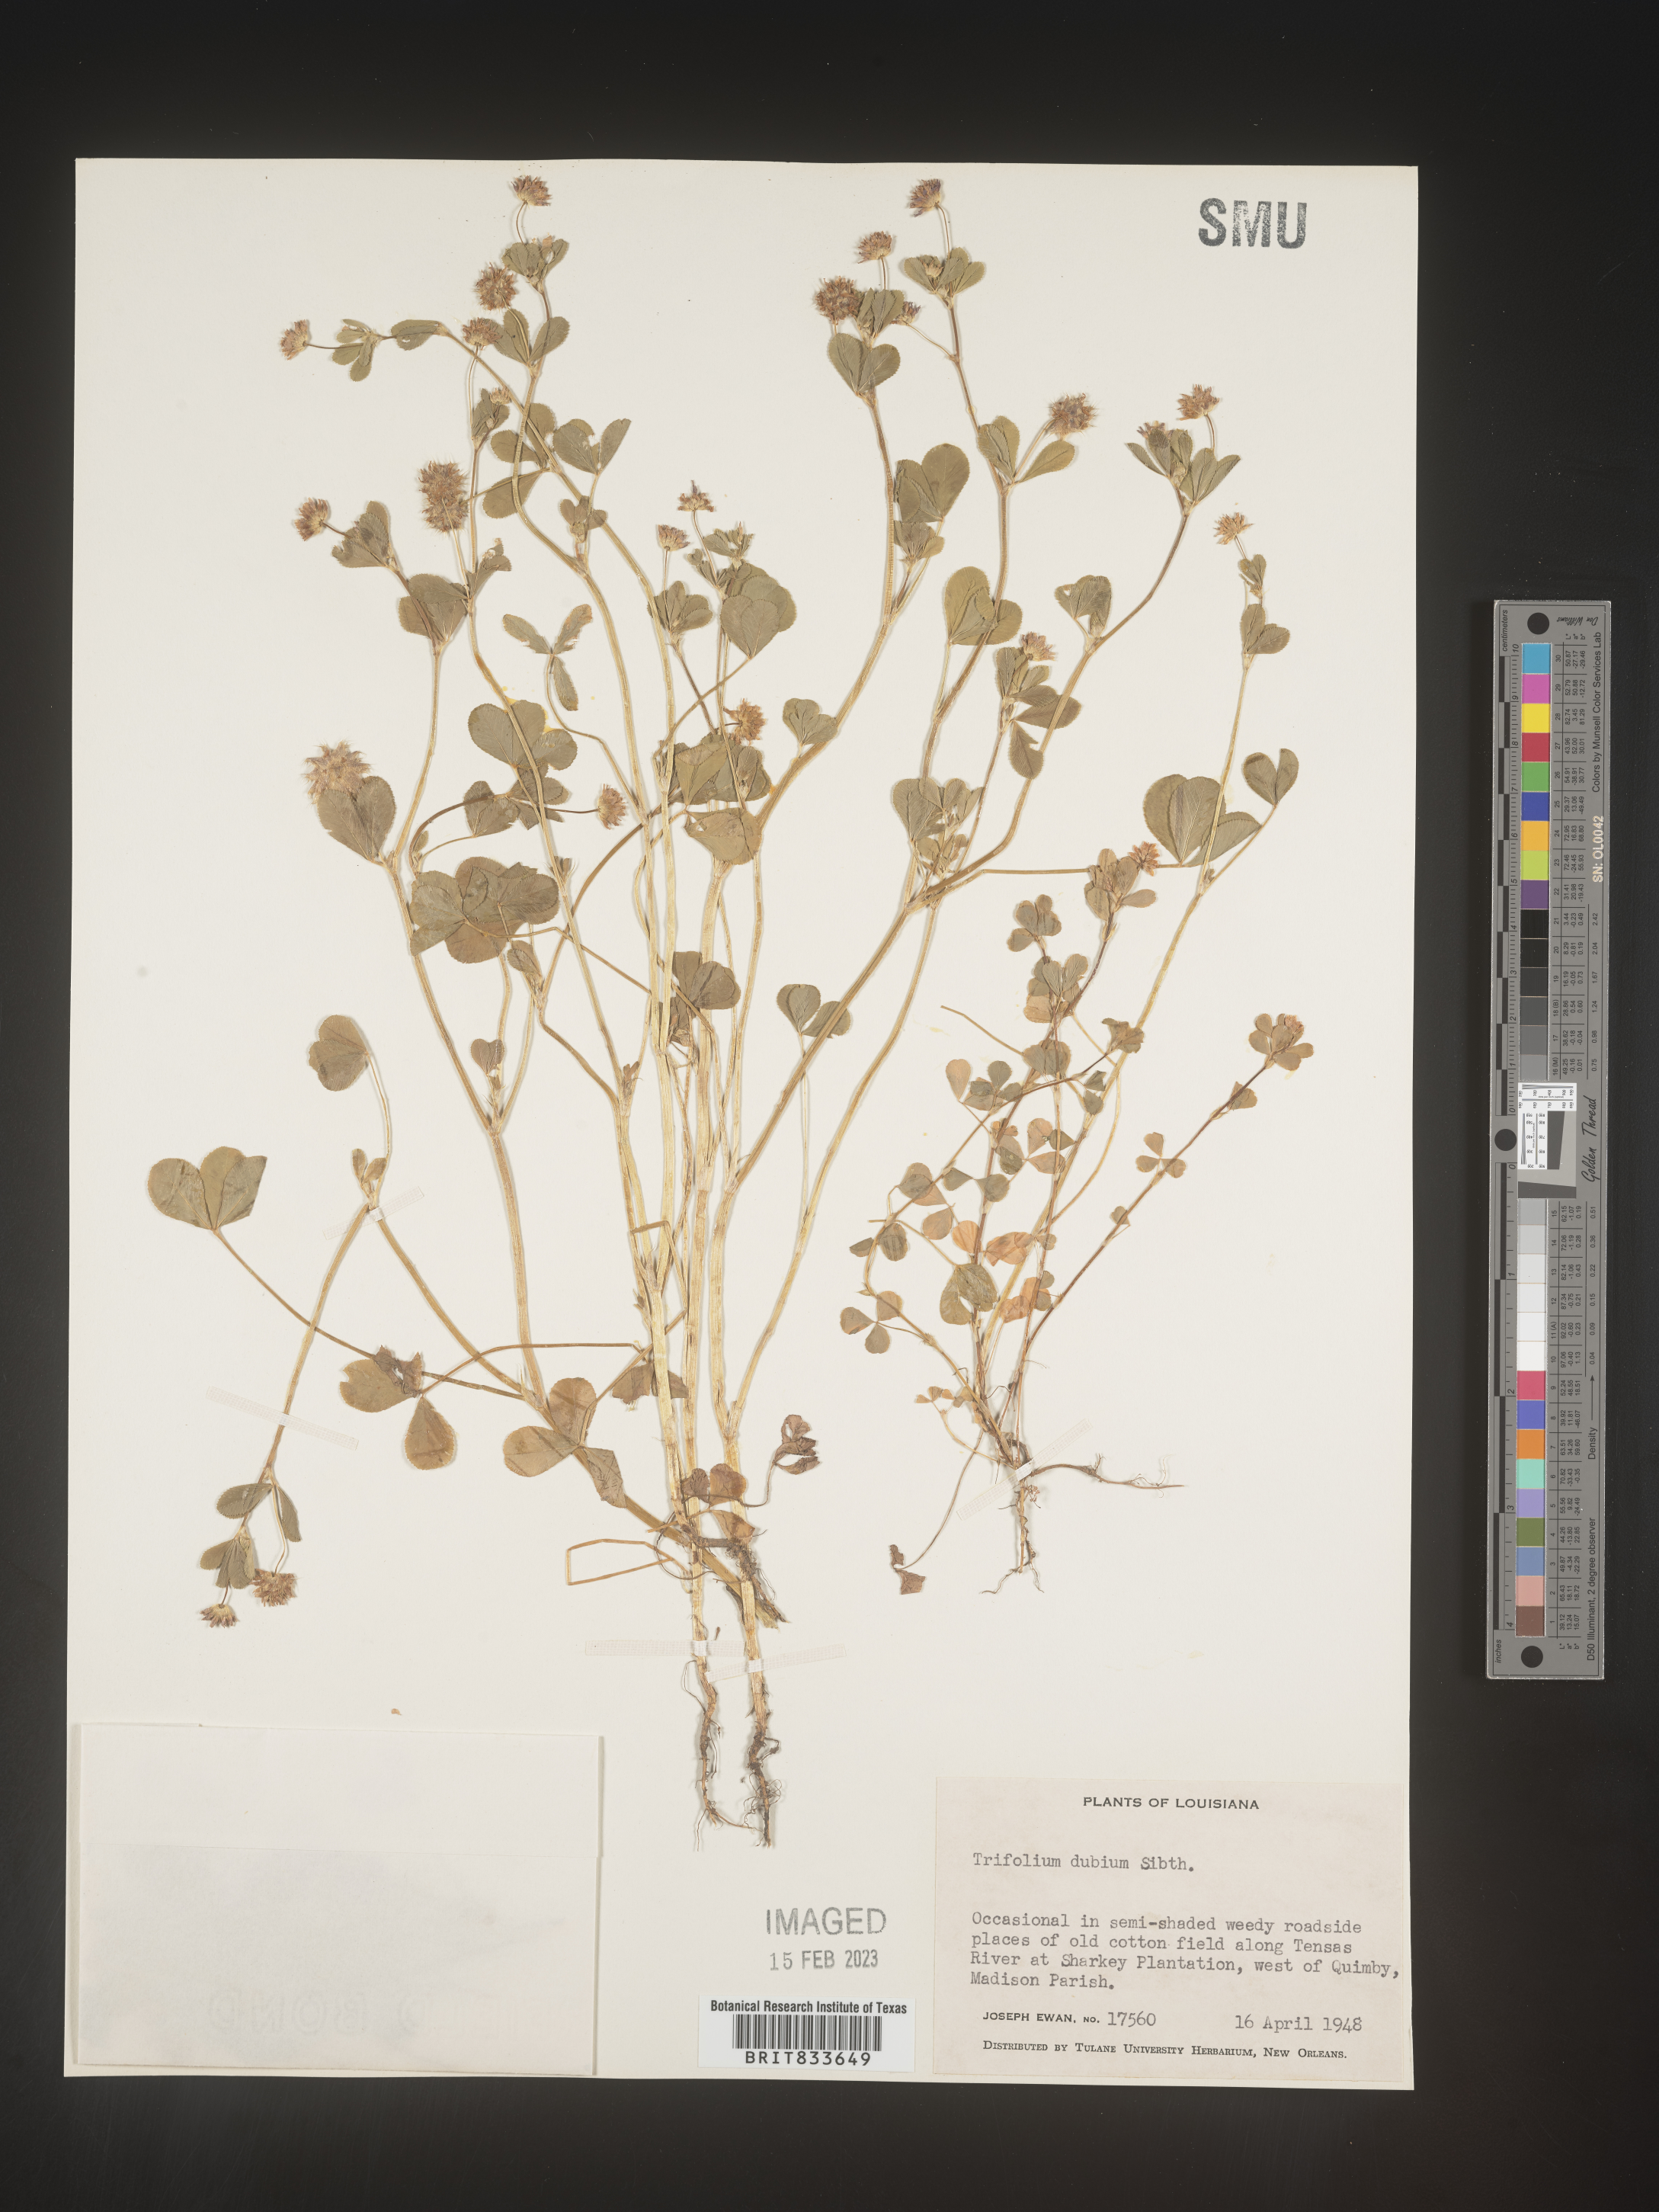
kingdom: Plantae
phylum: Tracheophyta
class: Magnoliopsida
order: Fabales
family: Fabaceae
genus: Trifolium
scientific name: Trifolium dubium
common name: Suckling clover
